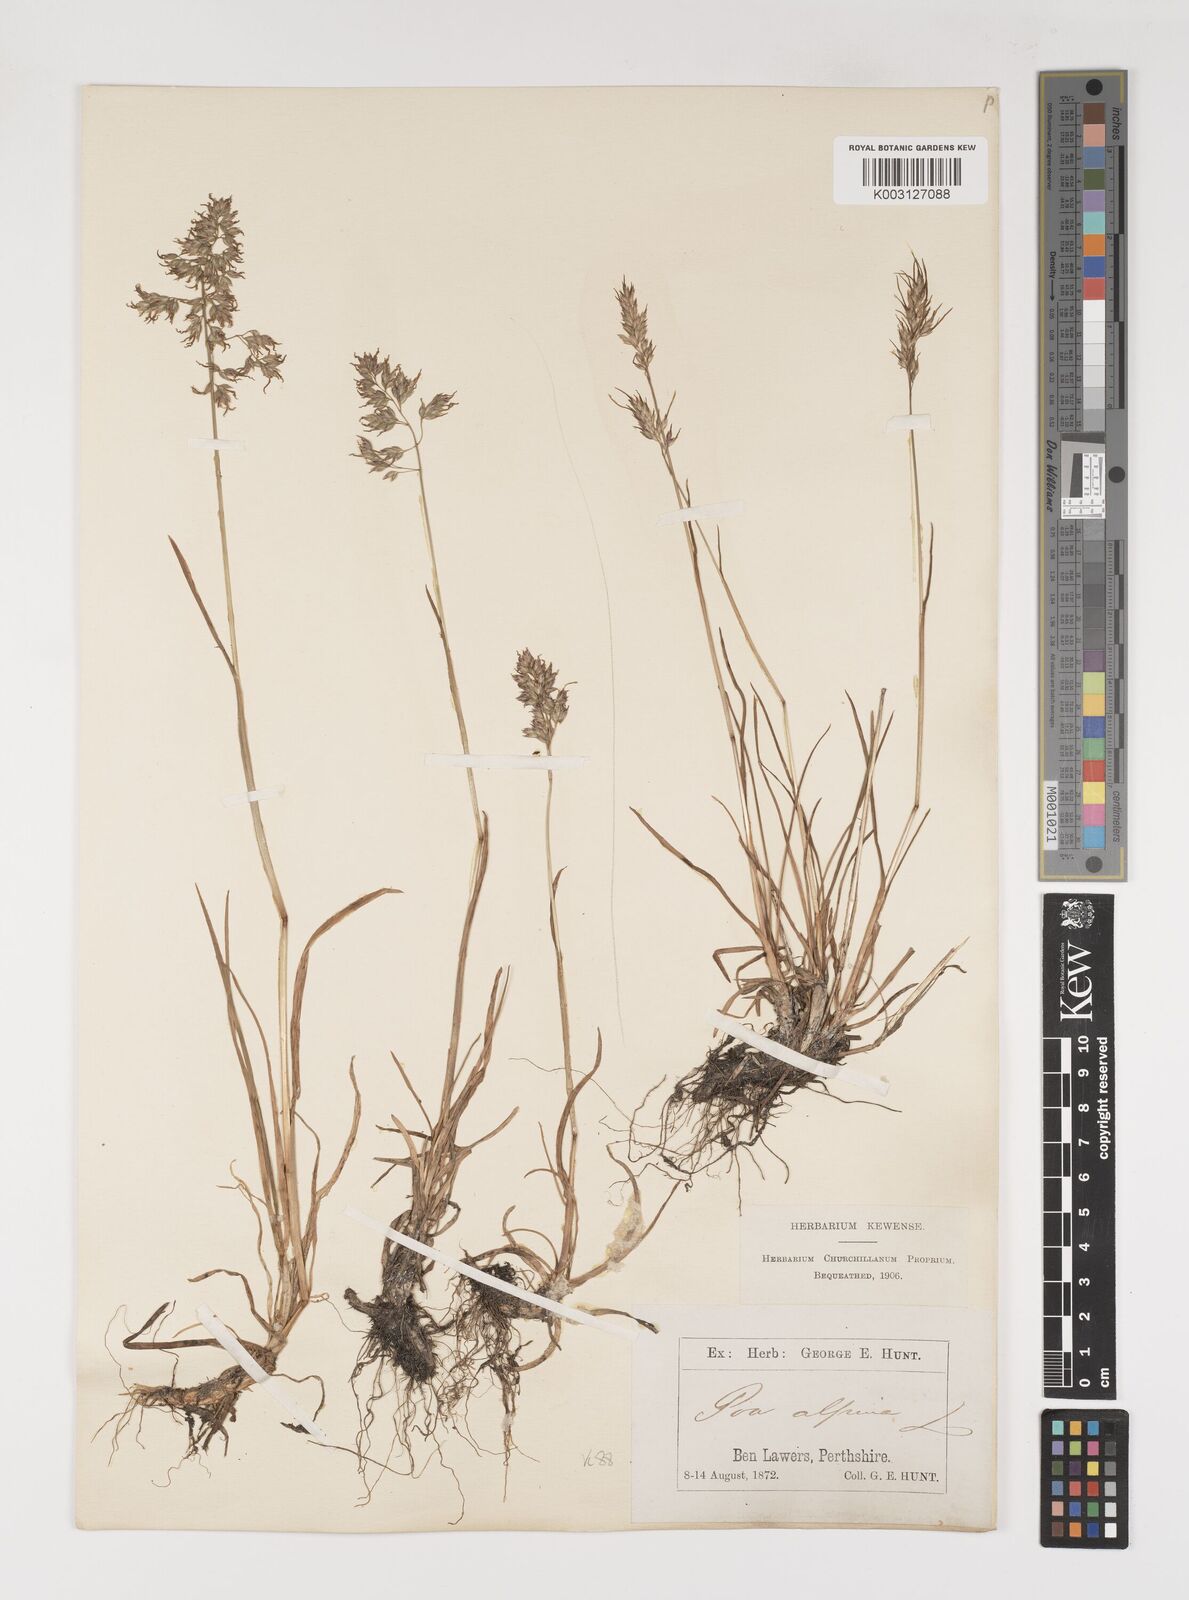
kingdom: Plantae
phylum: Tracheophyta
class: Liliopsida
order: Poales
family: Poaceae
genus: Poa
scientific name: Poa alpina
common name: Alpine bluegrass
